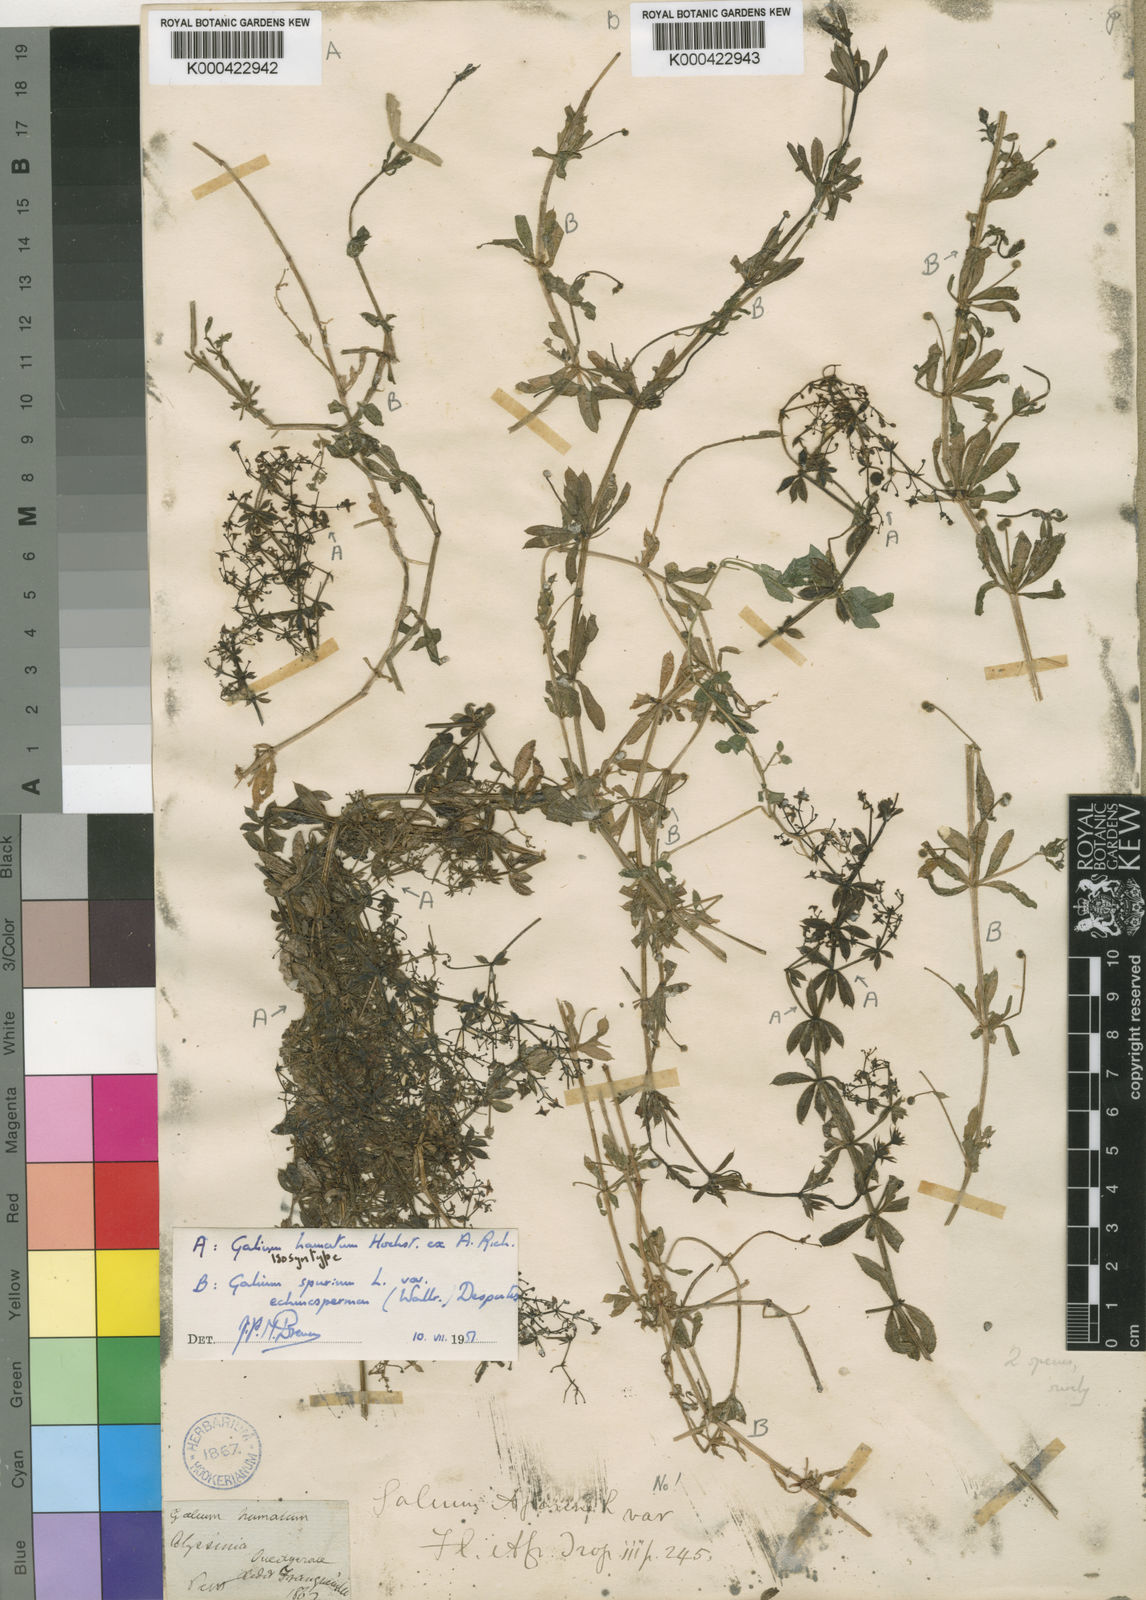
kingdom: Plantae
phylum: Tracheophyta
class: Magnoliopsida
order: Gentianales
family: Rubiaceae
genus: Galium
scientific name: Galium aparinoides
